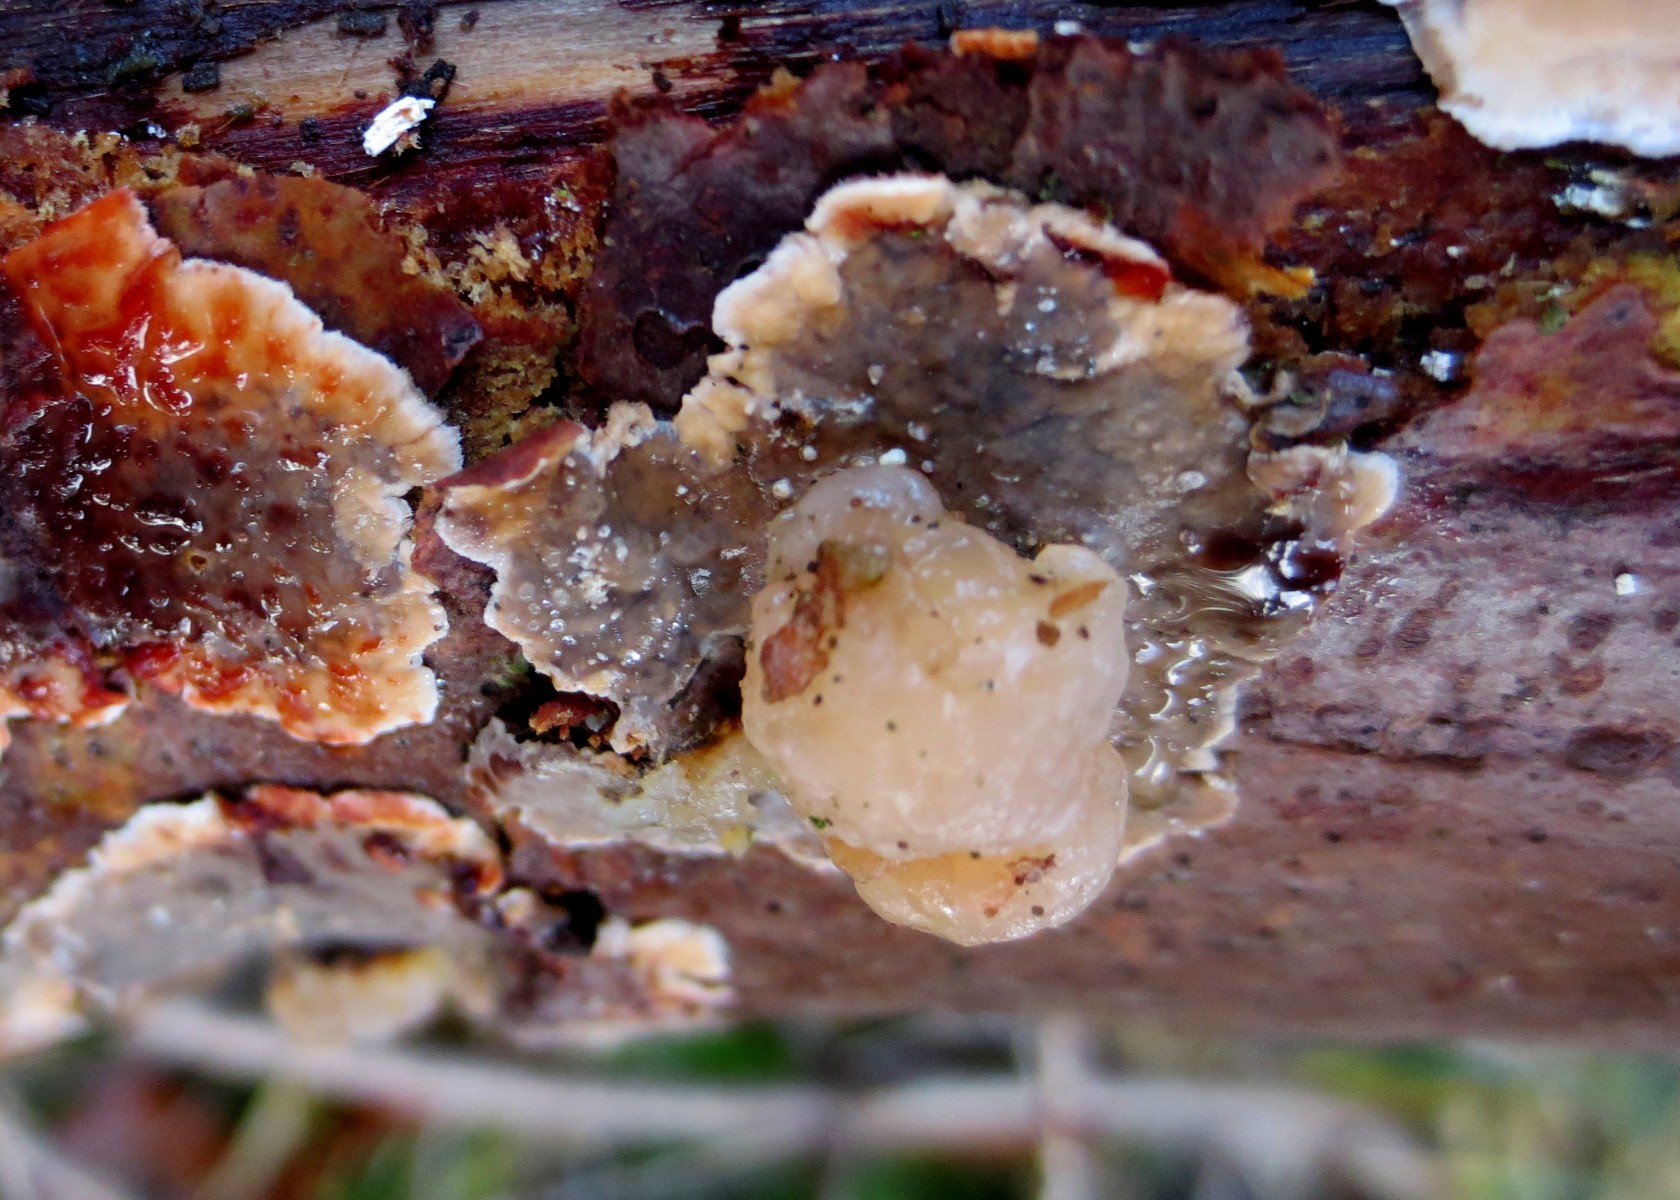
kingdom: Fungi
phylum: Basidiomycota
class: Tremellomycetes
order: Tremellales
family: Naemateliaceae
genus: Naematelia
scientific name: Naematelia encephala
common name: fyrre-bævresvamp
